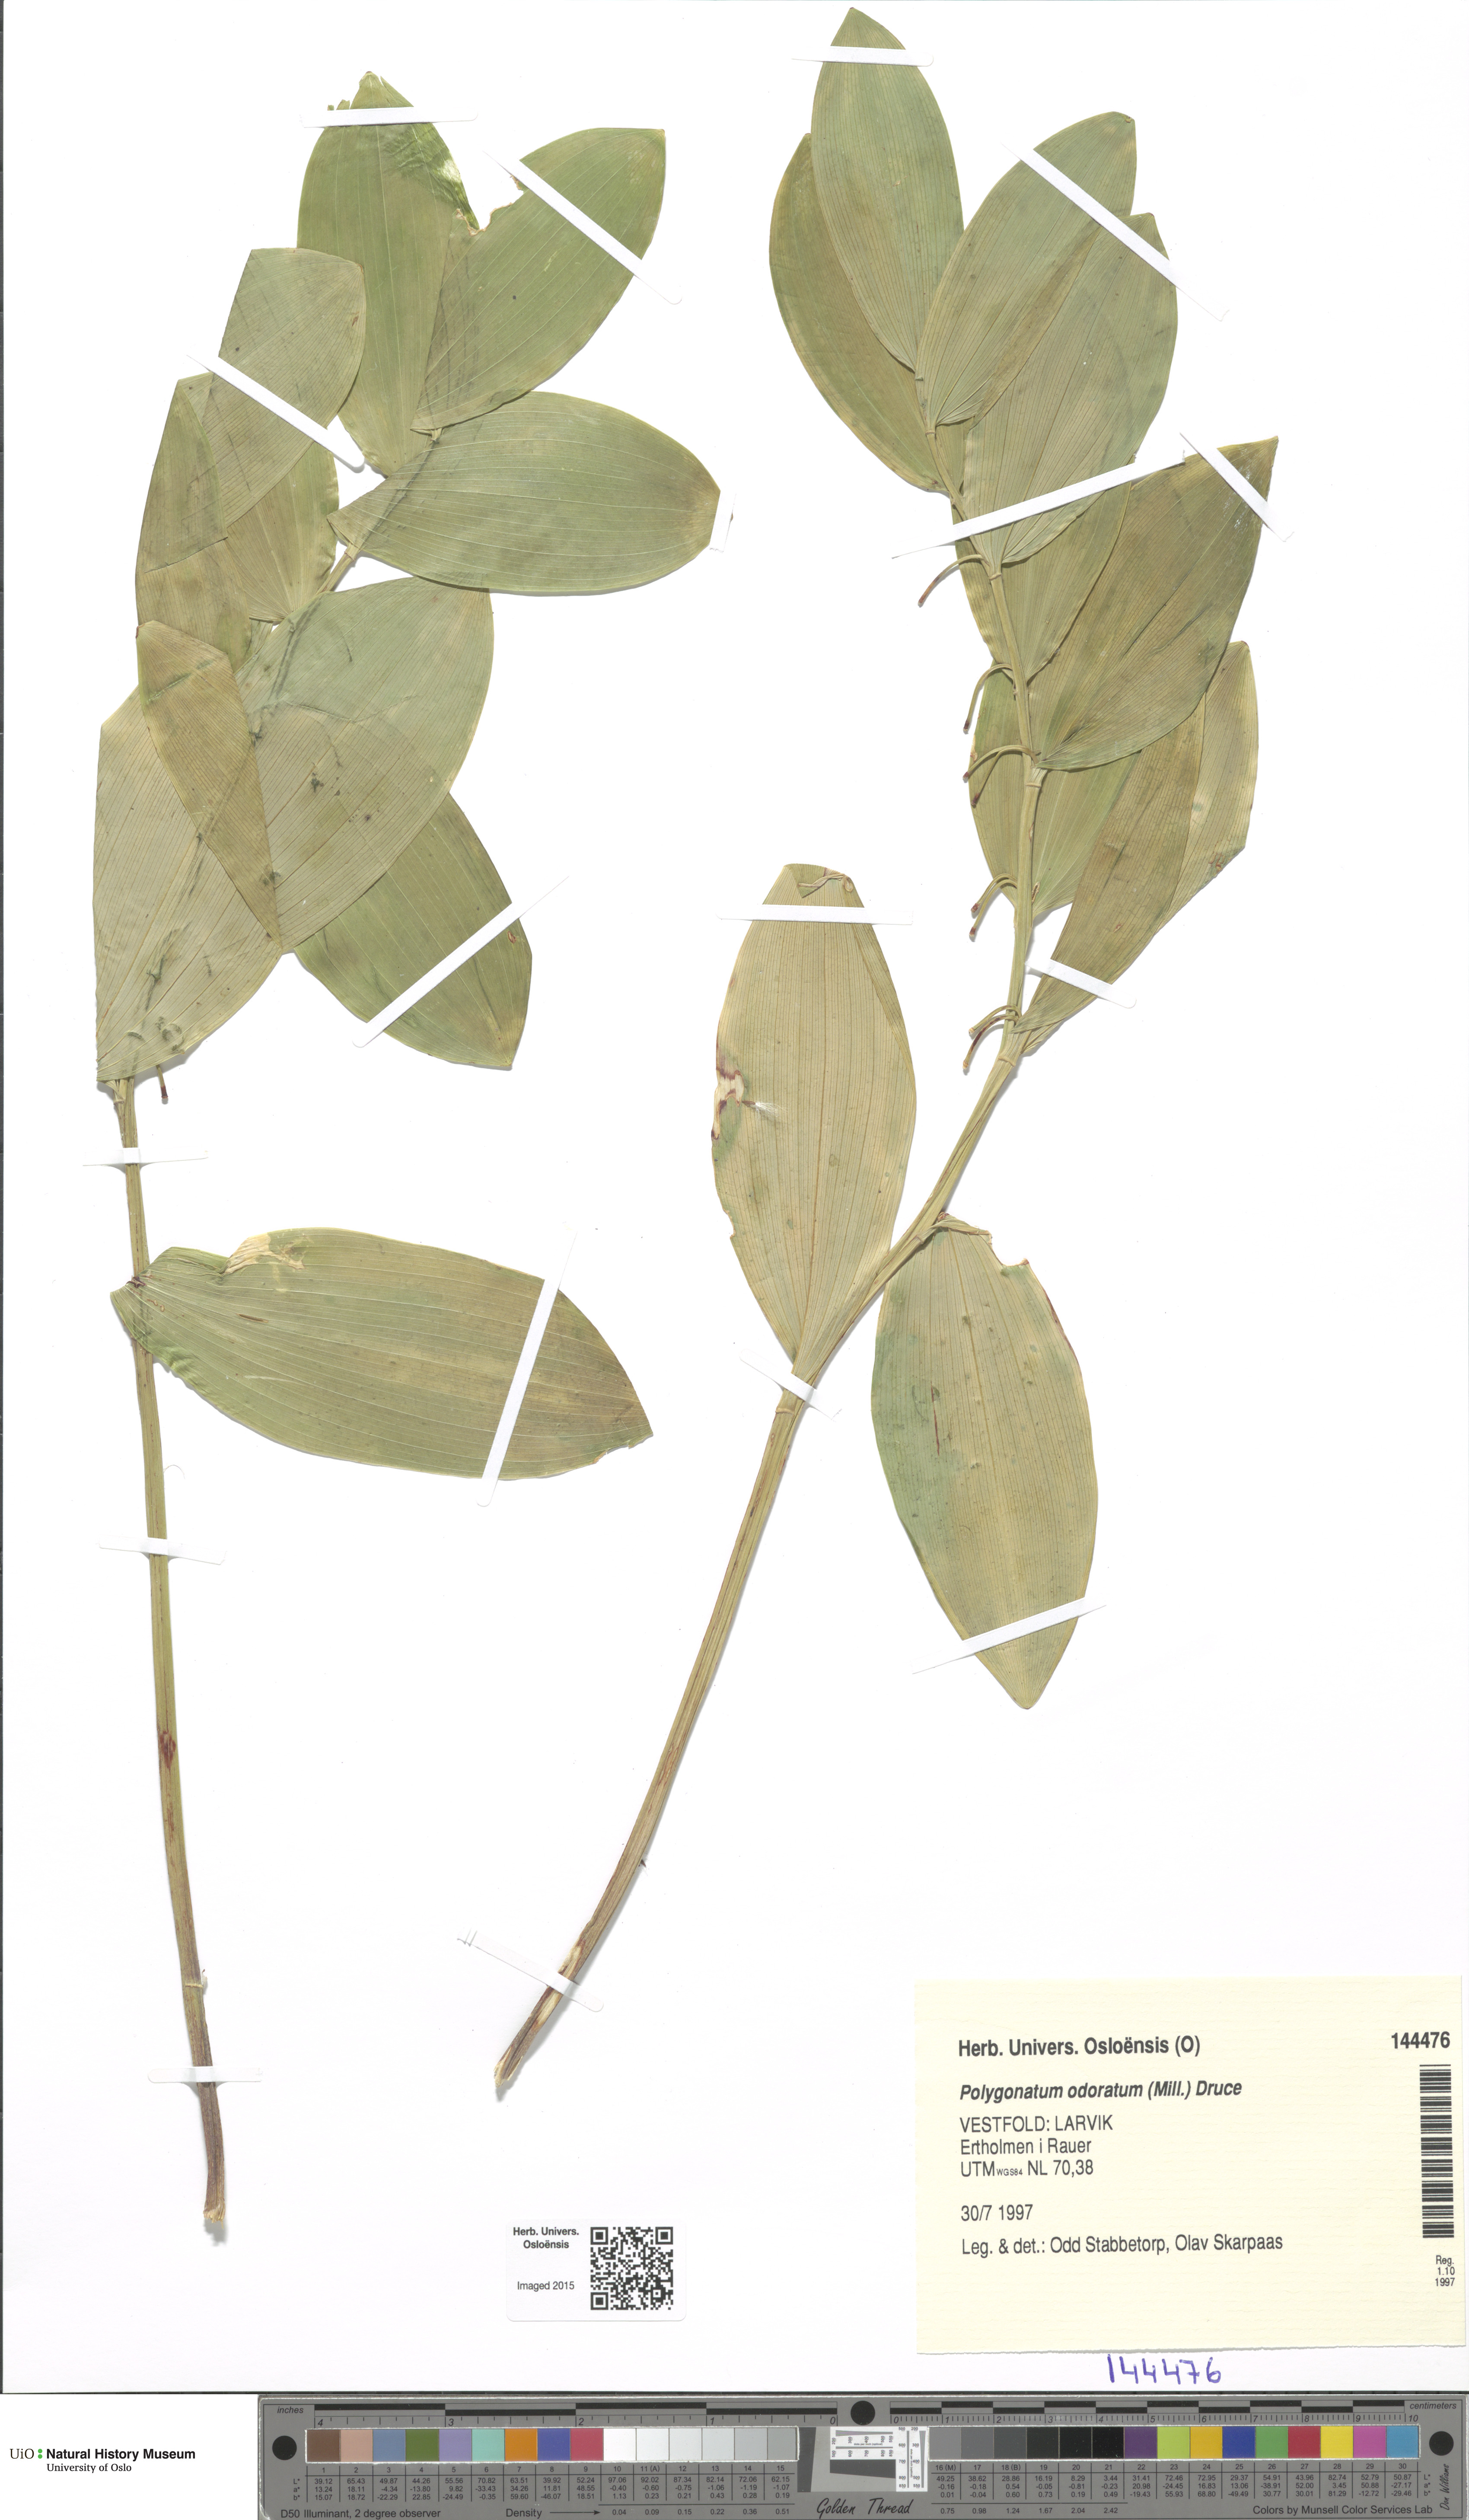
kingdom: Plantae
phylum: Tracheophyta
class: Liliopsida
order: Asparagales
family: Asparagaceae
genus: Polygonatum
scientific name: Polygonatum odoratum
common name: Angular solomon's-seal
